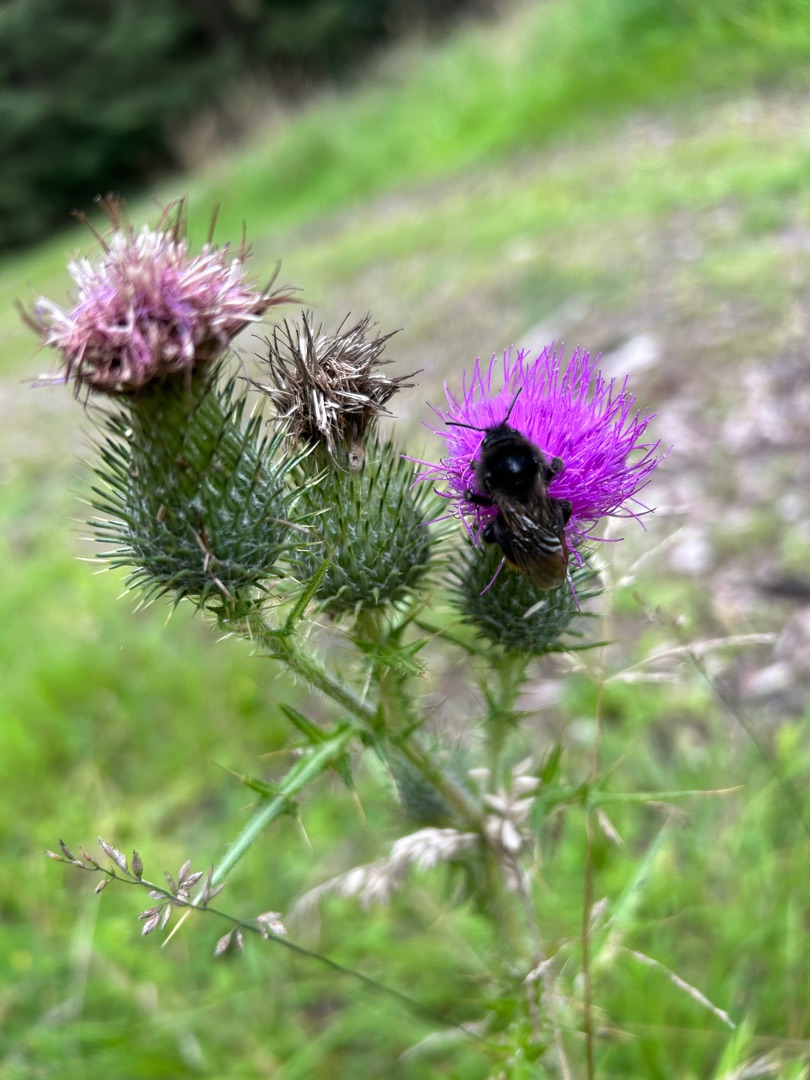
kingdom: Plantae
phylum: Tracheophyta
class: Magnoliopsida
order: Asterales
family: Asteraceae
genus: Cirsium
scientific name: Cirsium vulgare
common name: Horse-tidsel
